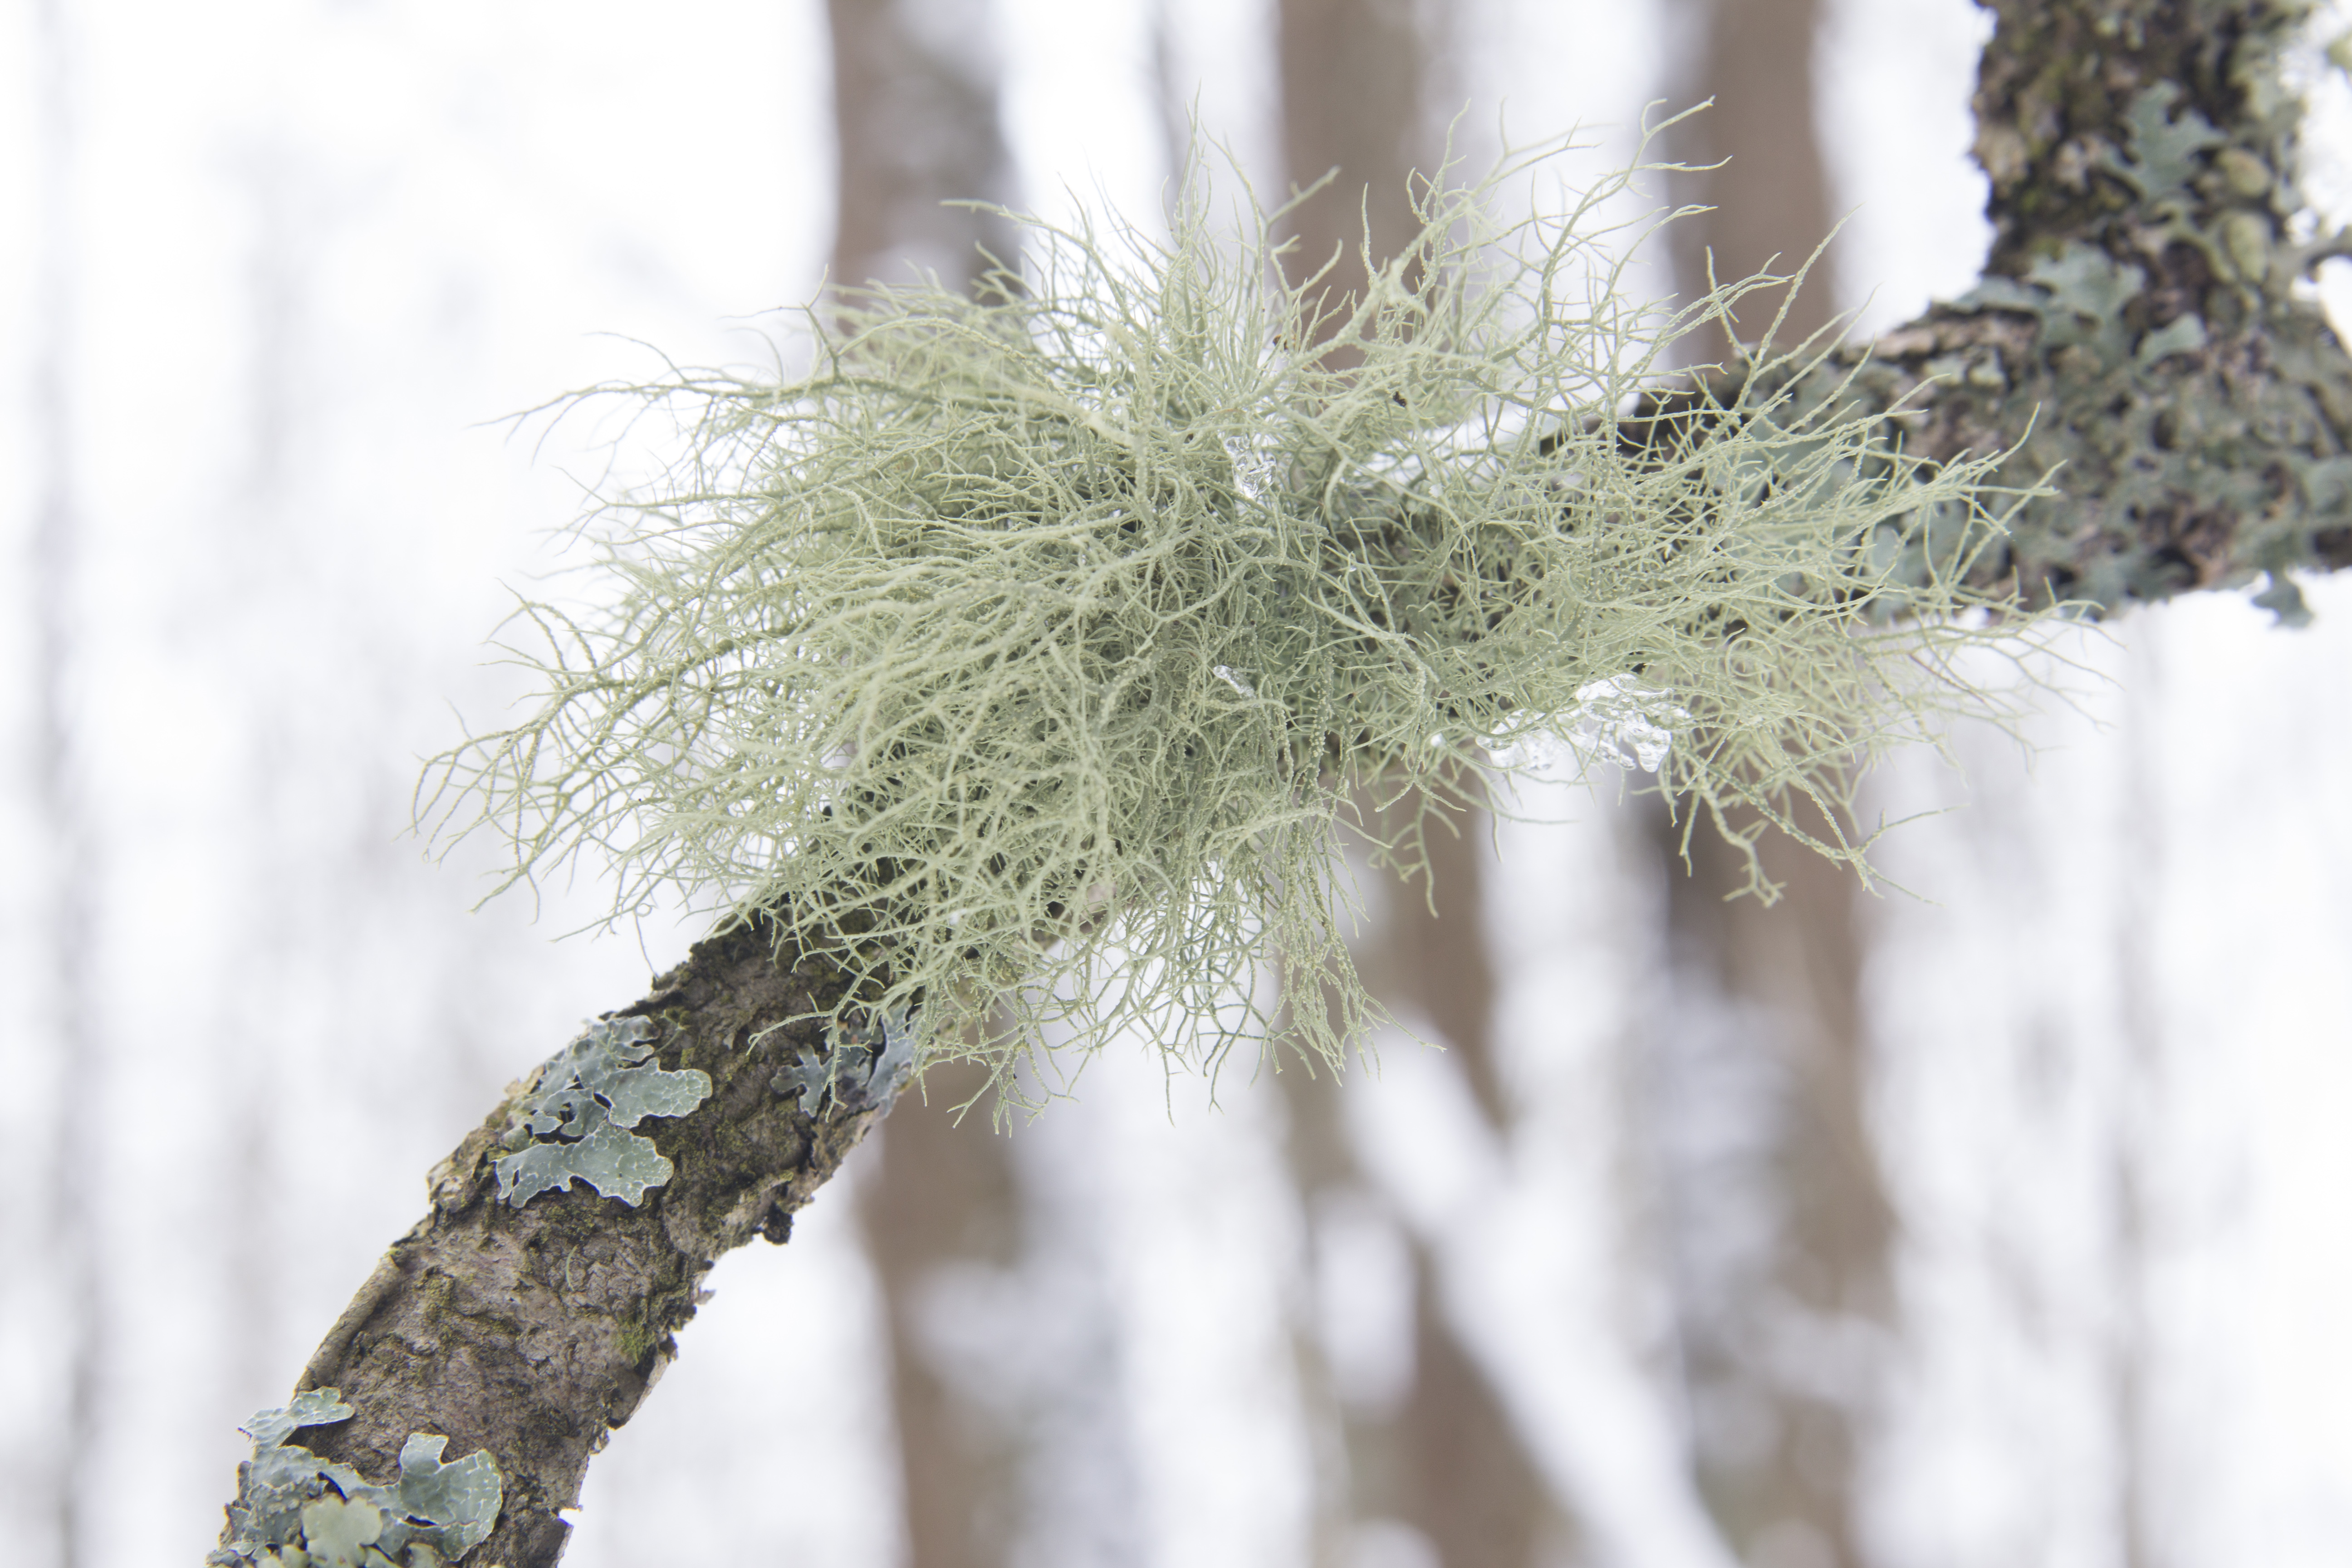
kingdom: Fungi
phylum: Ascomycota
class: Lecanoromycetes
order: Lecanorales
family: Parmeliaceae
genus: Usnea
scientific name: Usnea hirta
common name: Bristly beard lichen
